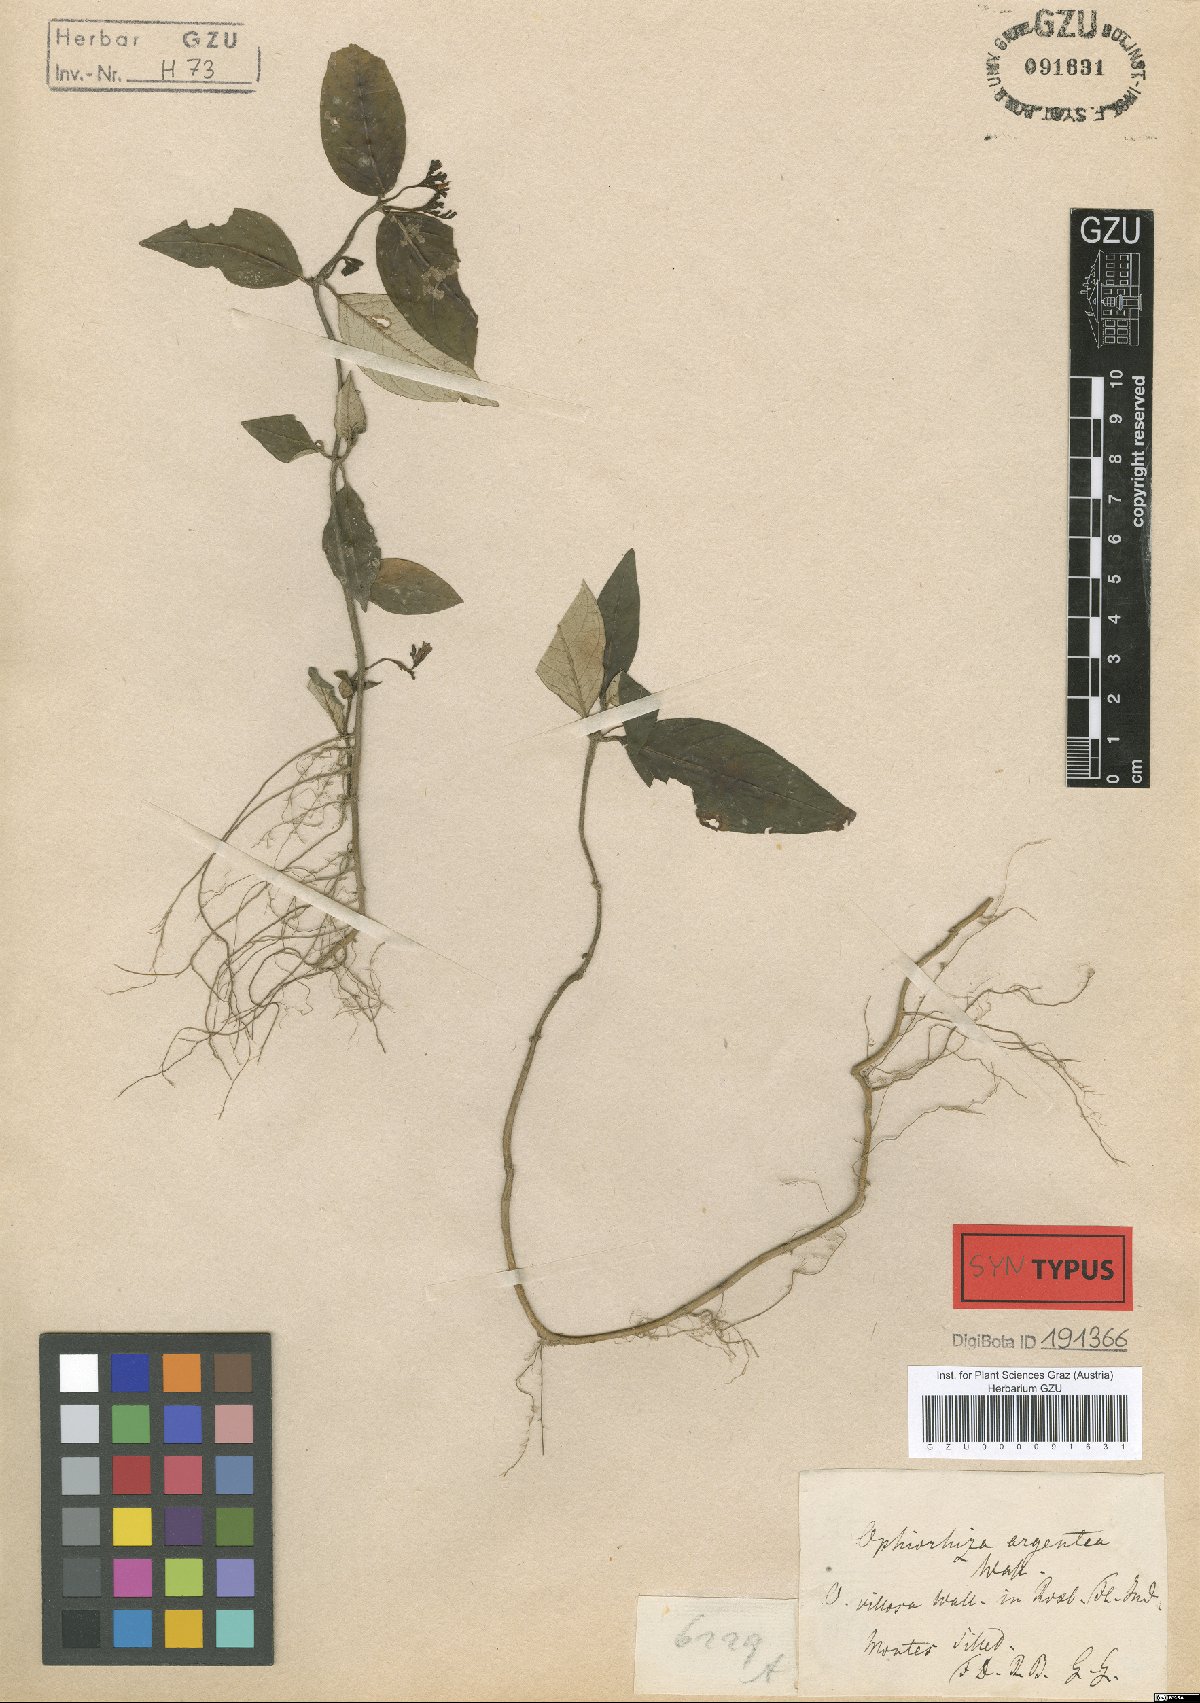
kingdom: Plantae
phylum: Tracheophyta
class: Magnoliopsida
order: Gentianales
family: Rubiaceae
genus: Ophiorrhiza
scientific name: Ophiorrhiza rugosa
